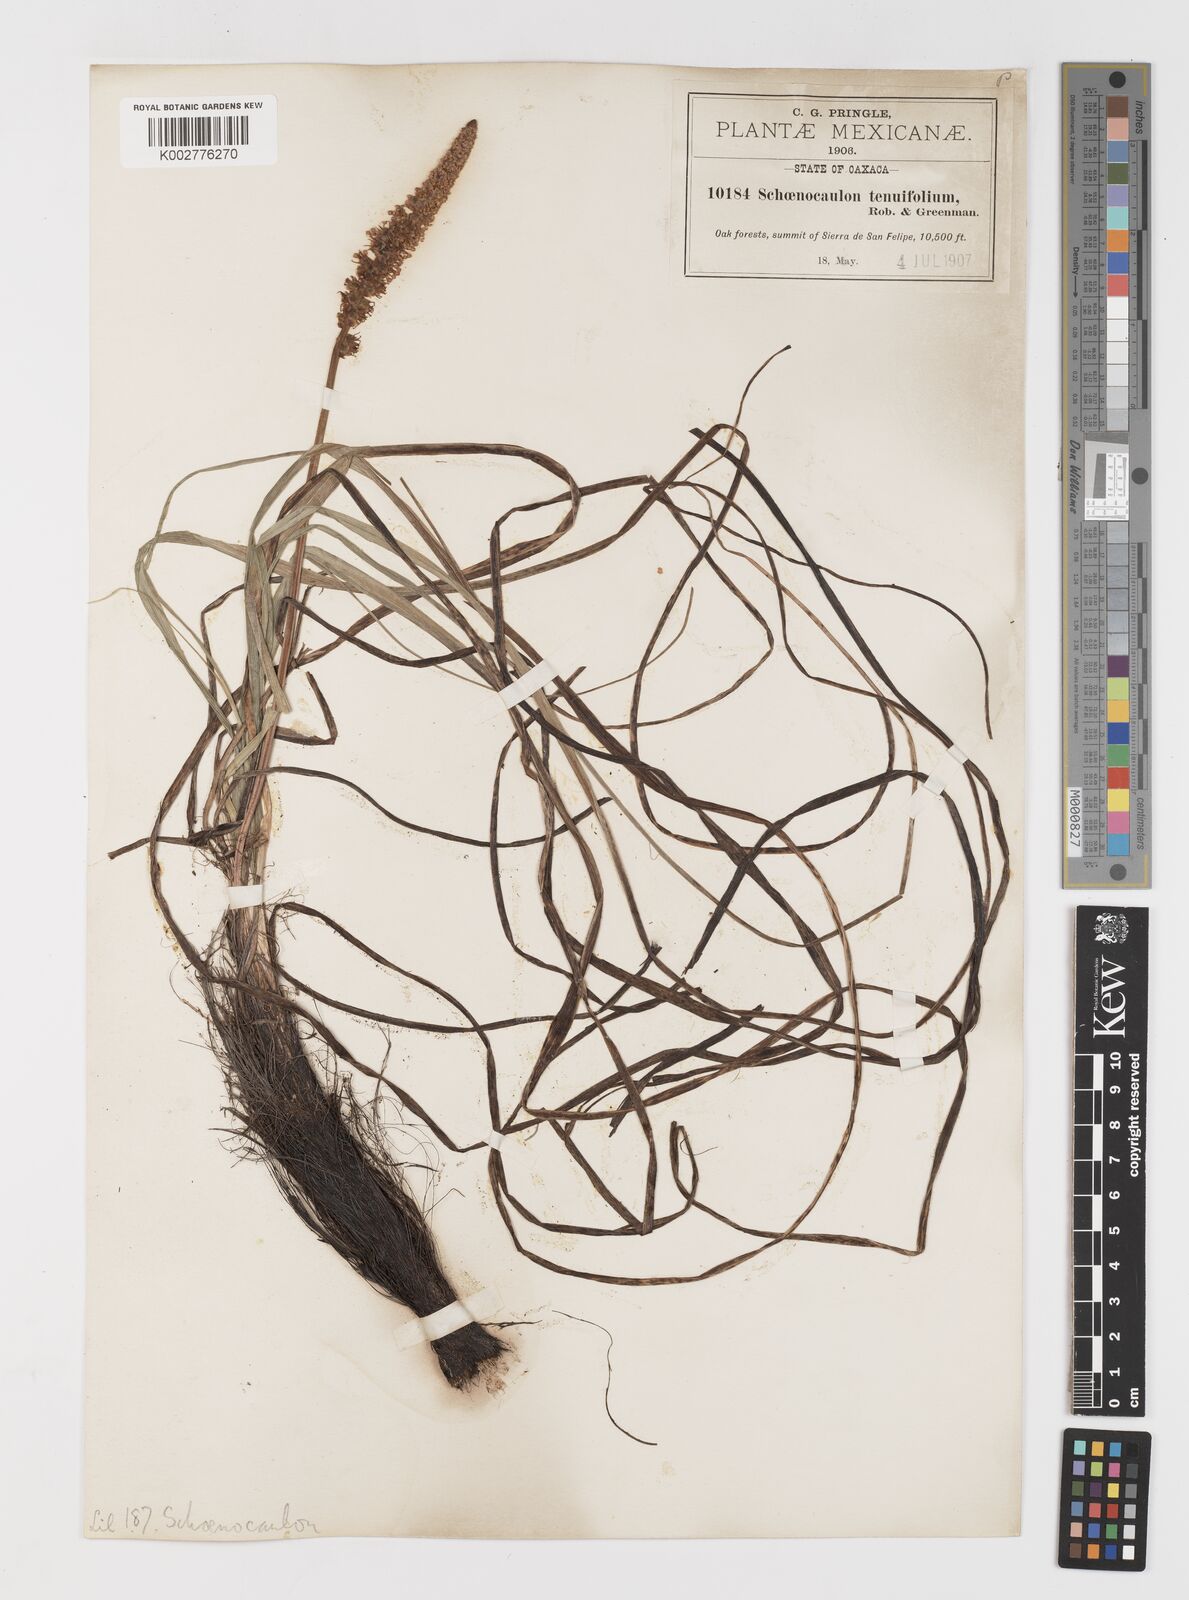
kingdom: Plantae
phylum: Tracheophyta
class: Liliopsida
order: Liliales
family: Melanthiaceae
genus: Schoenocaulon
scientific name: Schoenocaulon tenuifolium
